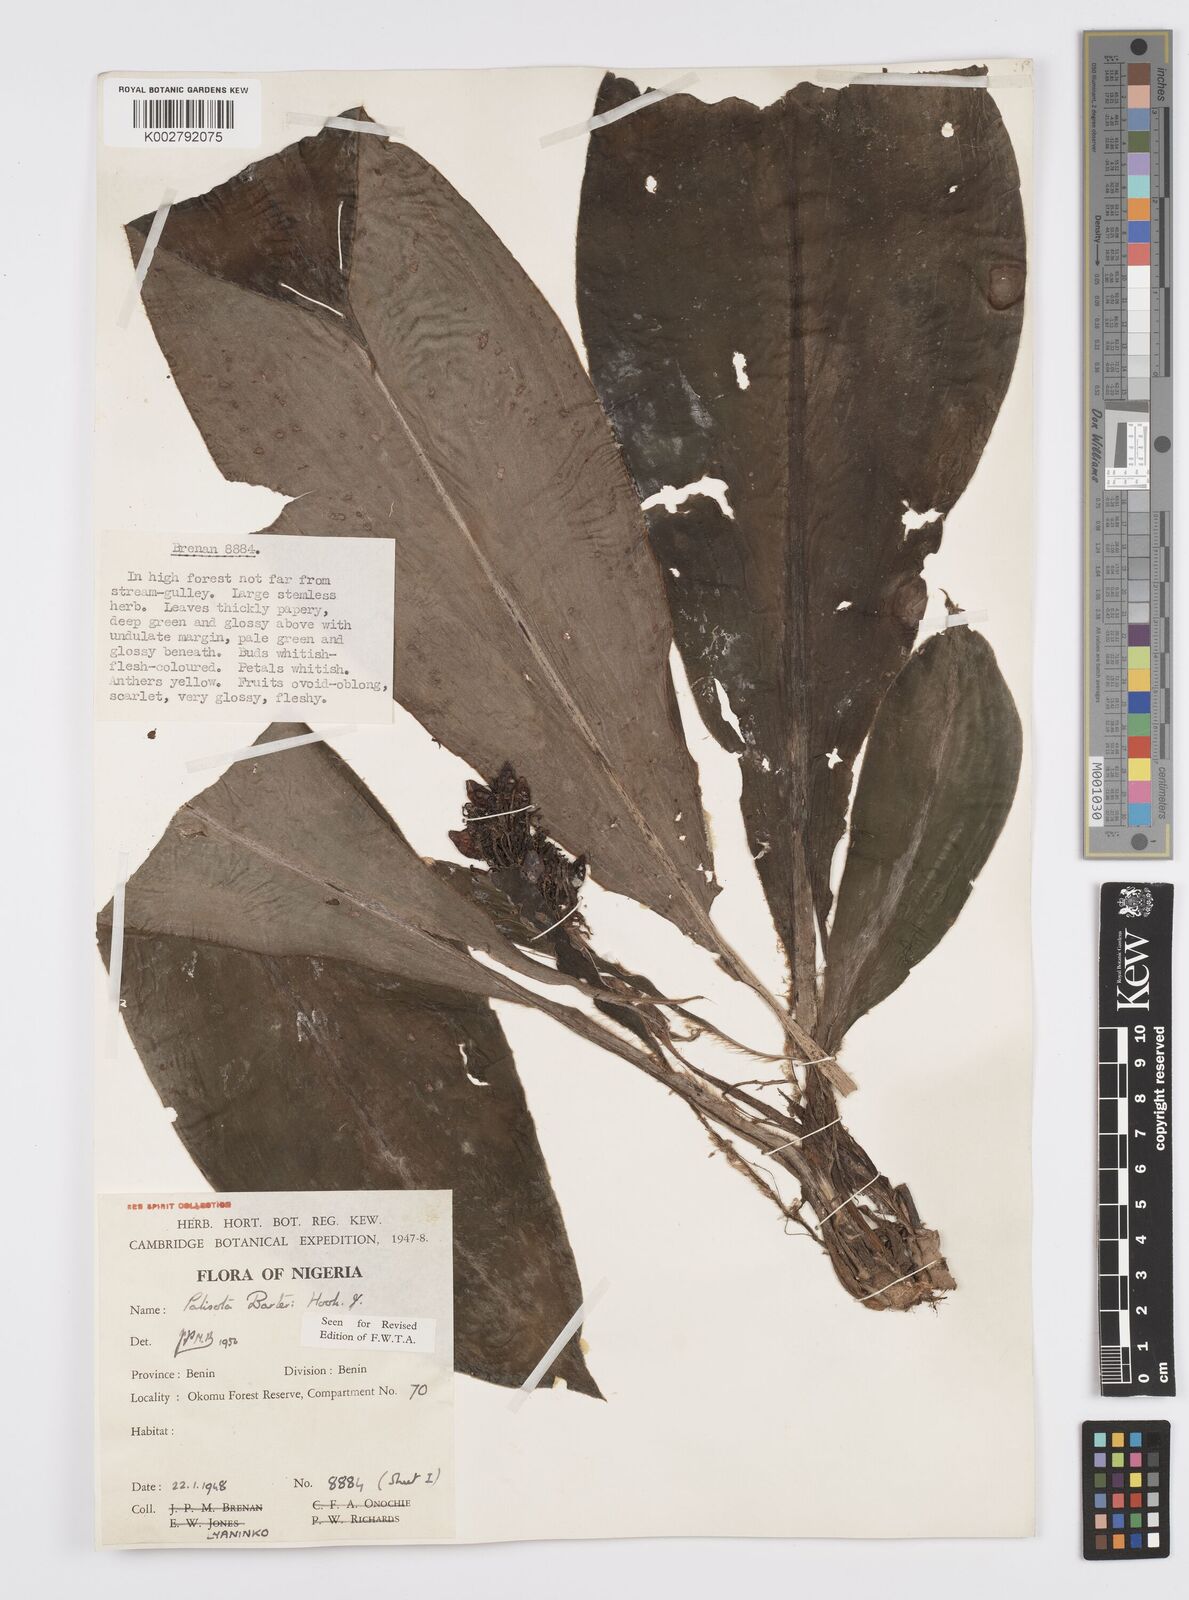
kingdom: Plantae
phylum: Tracheophyta
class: Liliopsida
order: Commelinales
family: Commelinaceae
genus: Palisota
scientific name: Palisota barteri
